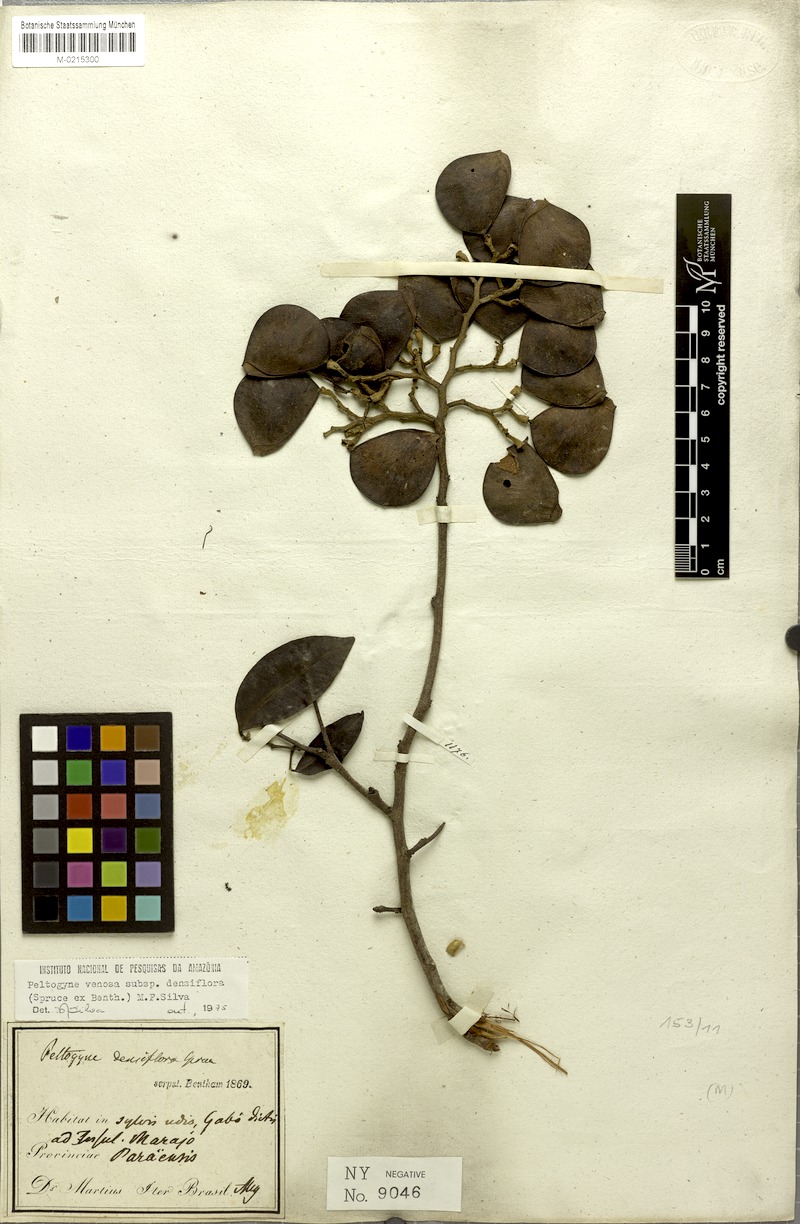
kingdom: Plantae
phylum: Tracheophyta
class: Magnoliopsida
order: Fabales
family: Fabaceae
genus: Peltogyne
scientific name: Peltogyne venosa
